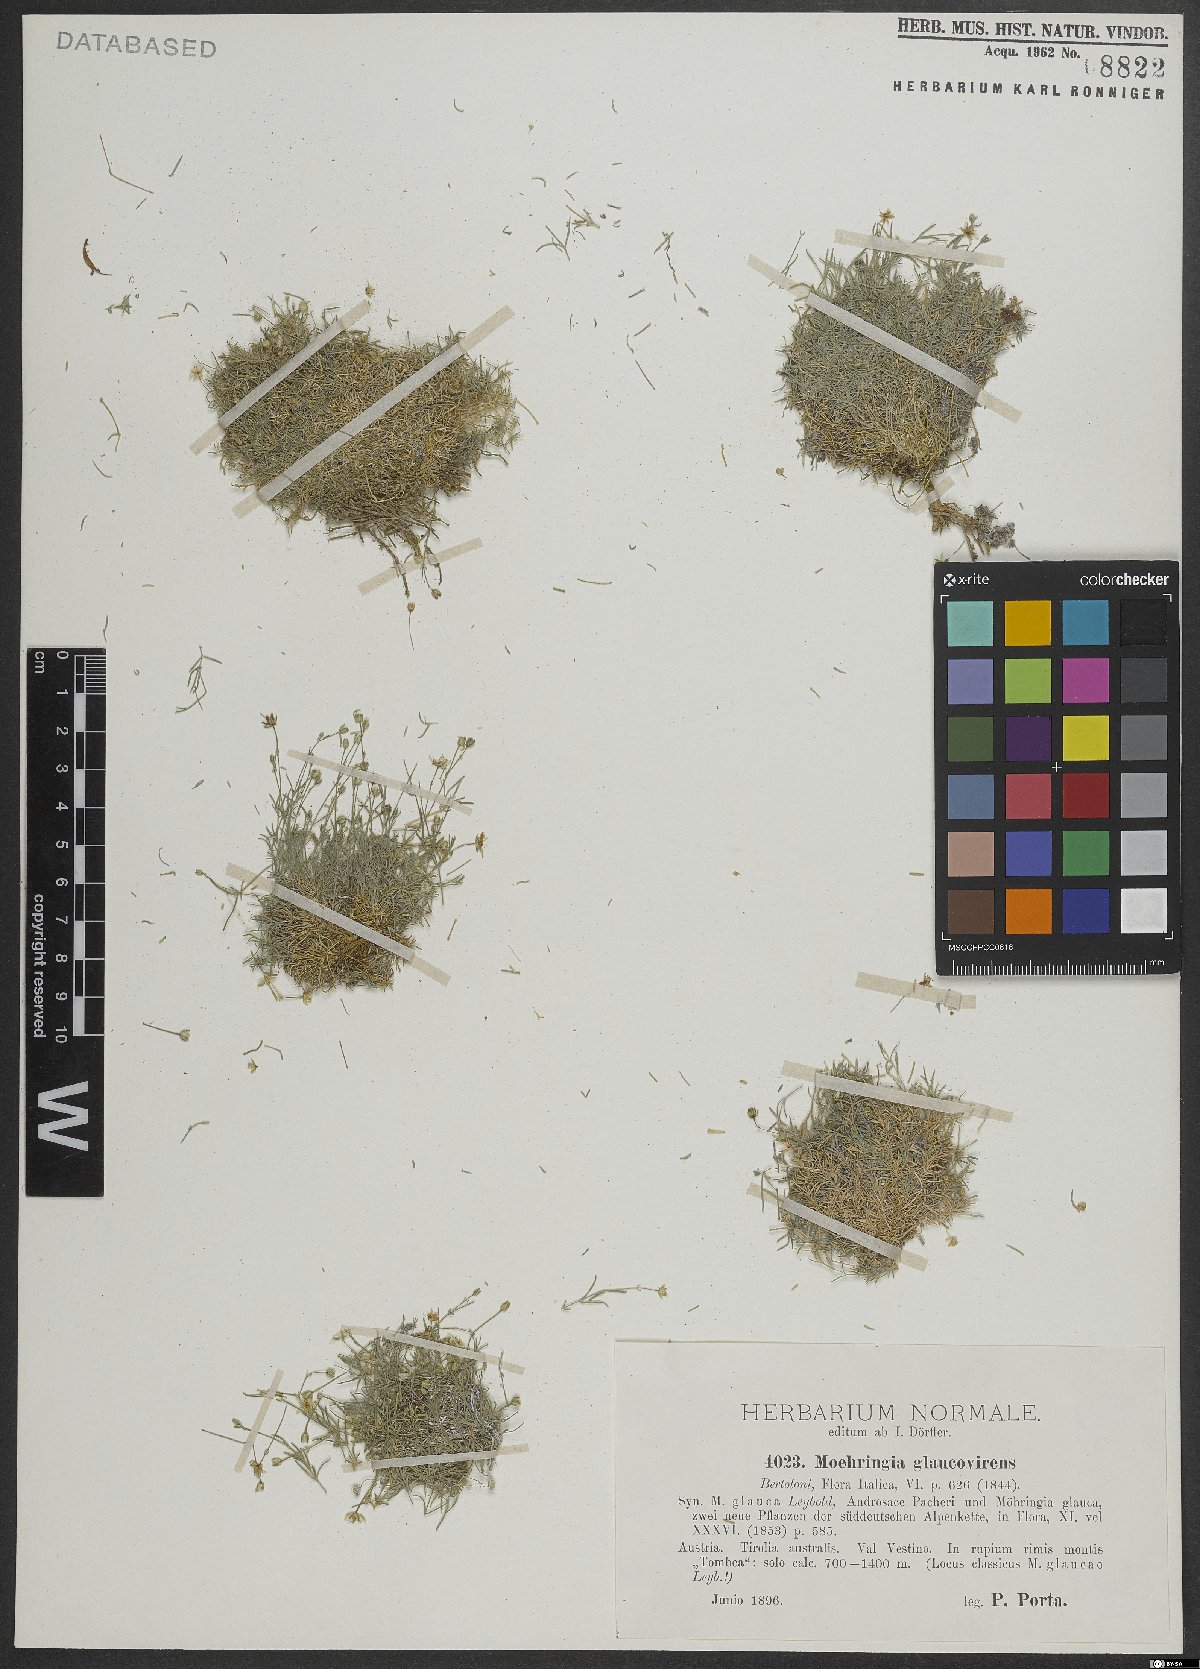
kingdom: Plantae
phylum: Tracheophyta
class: Magnoliopsida
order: Caryophyllales
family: Caryophyllaceae
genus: Moehringia
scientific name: Moehringia glaucovirens
